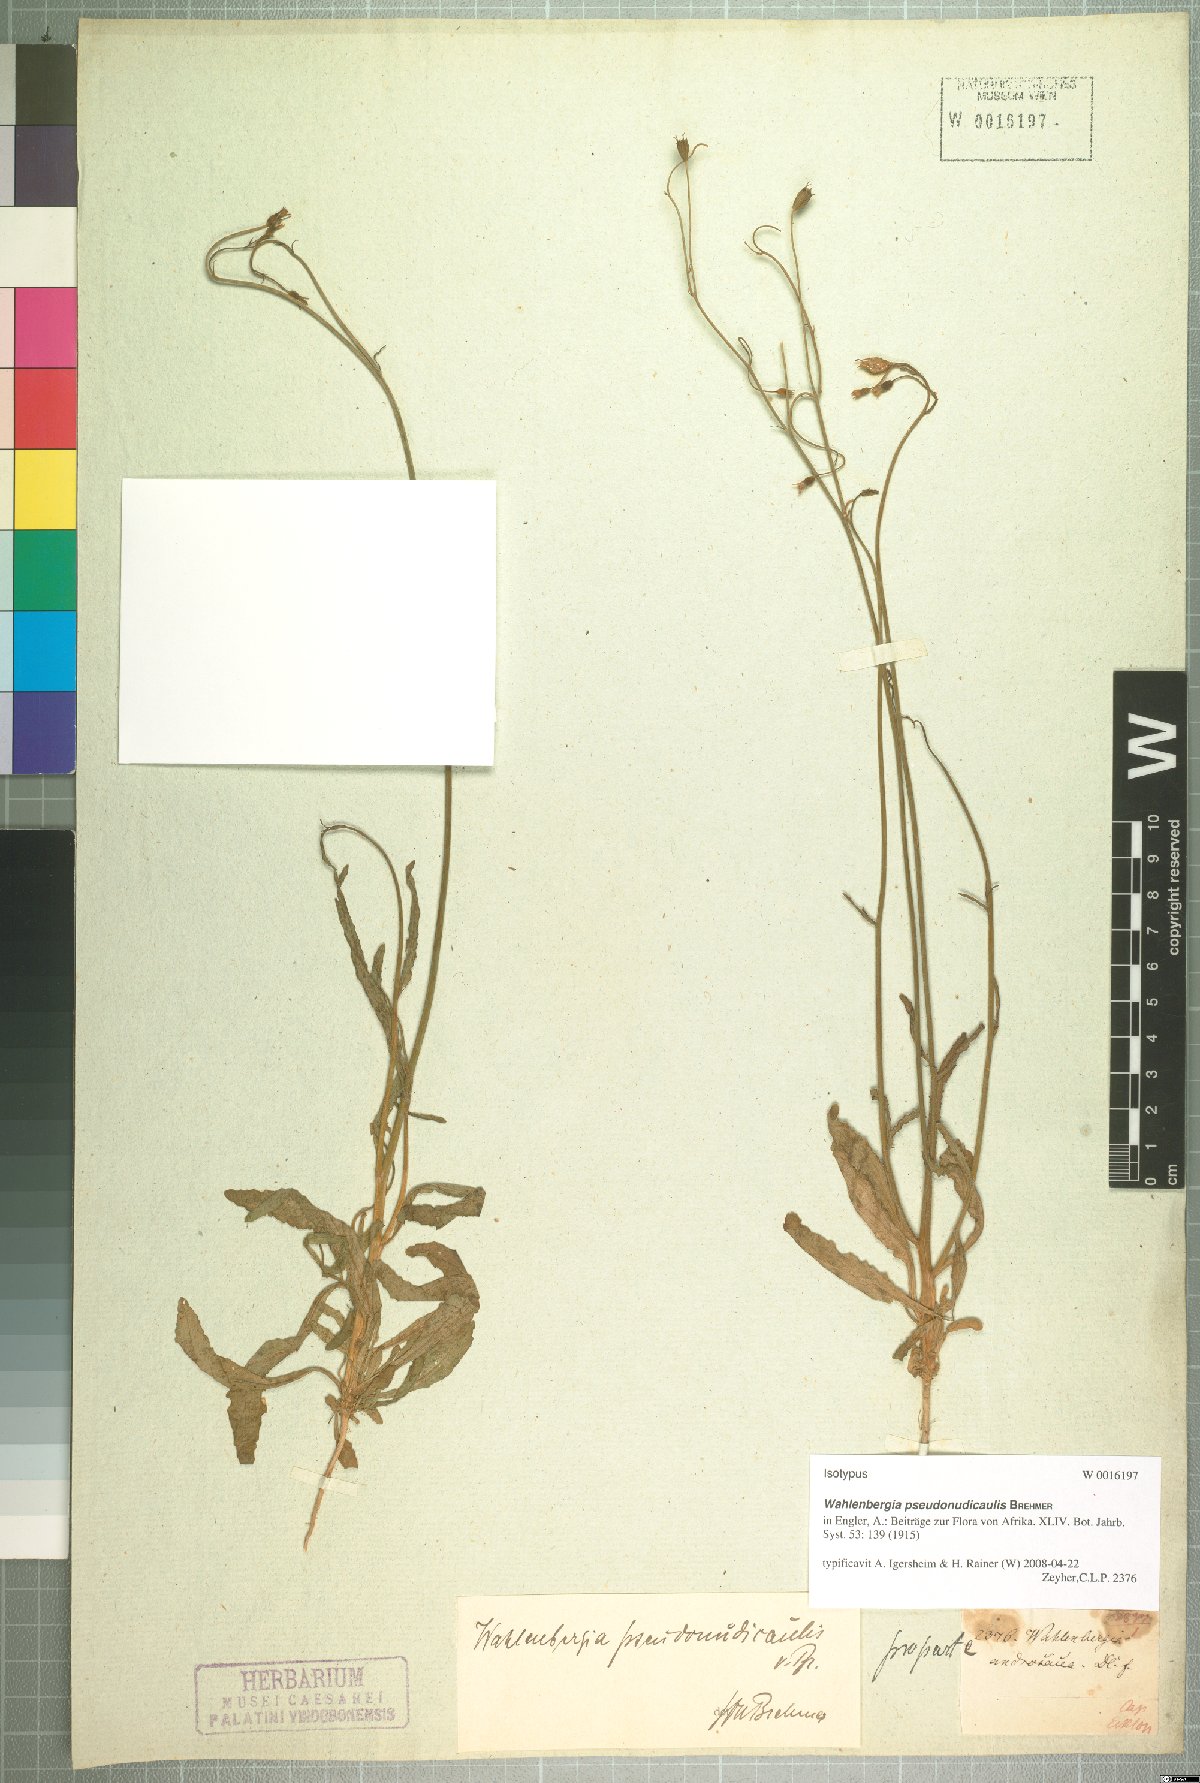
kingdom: Plantae
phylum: Tracheophyta
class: Magnoliopsida
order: Asterales
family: Campanulaceae
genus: Wahlenbergia
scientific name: Wahlenbergia pseudonudicaulis
